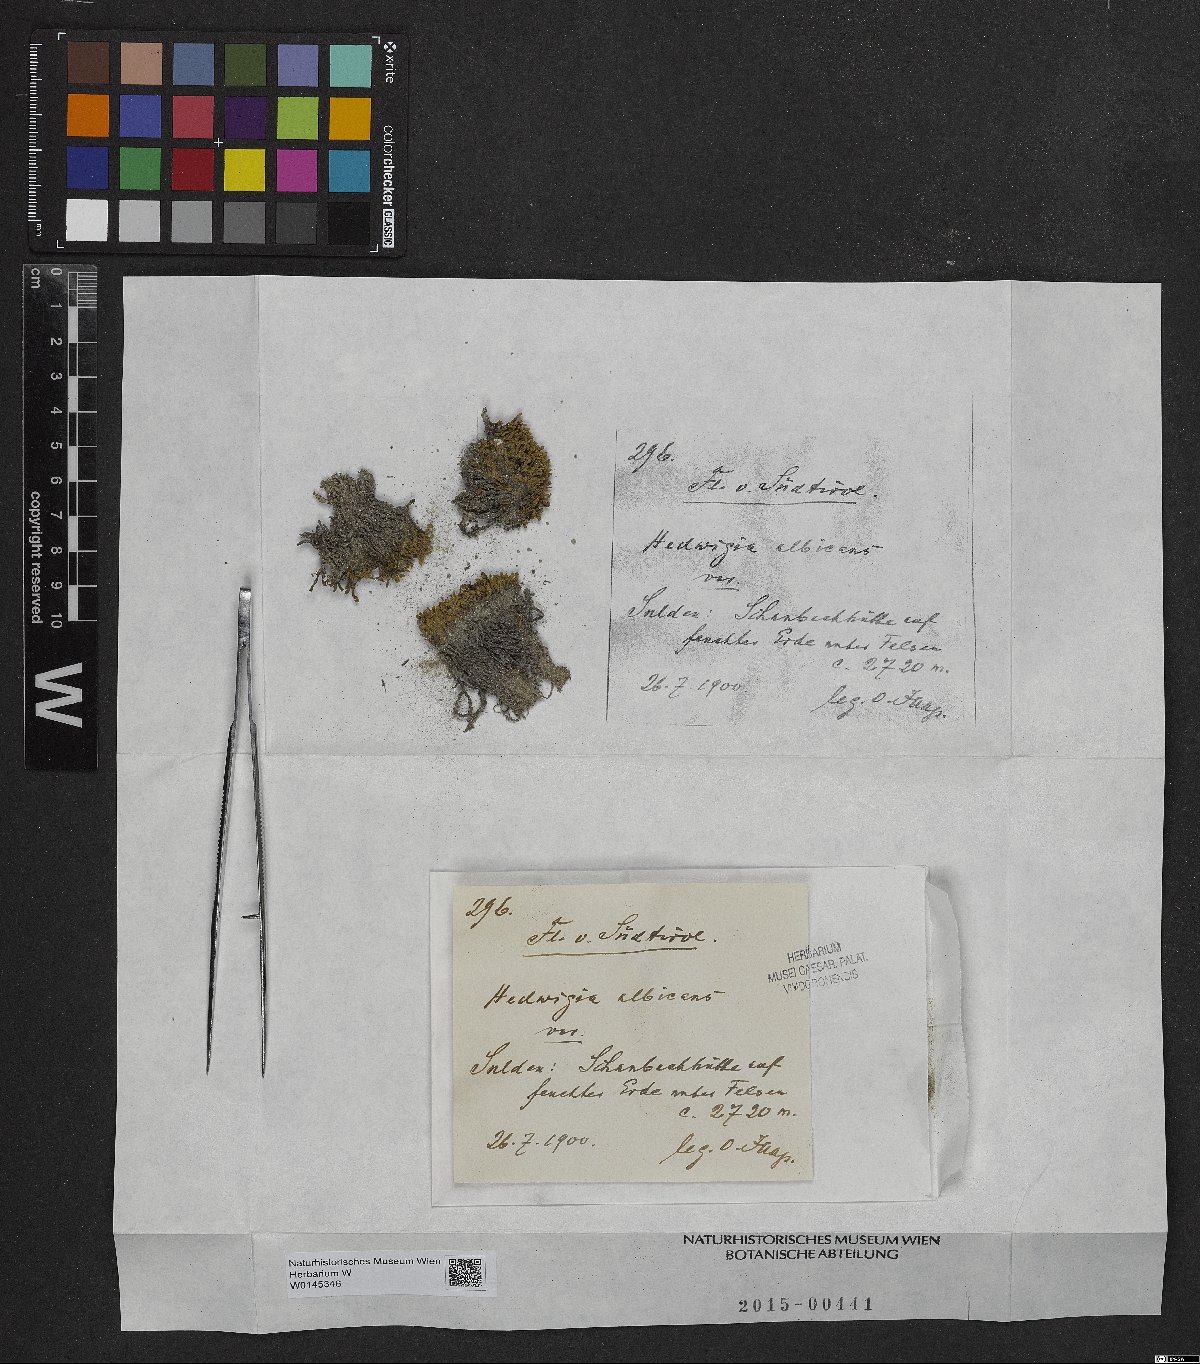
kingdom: Plantae
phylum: Bryophyta
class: Bryopsida
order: Hedwigiales
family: Hedwigiaceae
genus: Hedwigia
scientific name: Hedwigia ciliata
